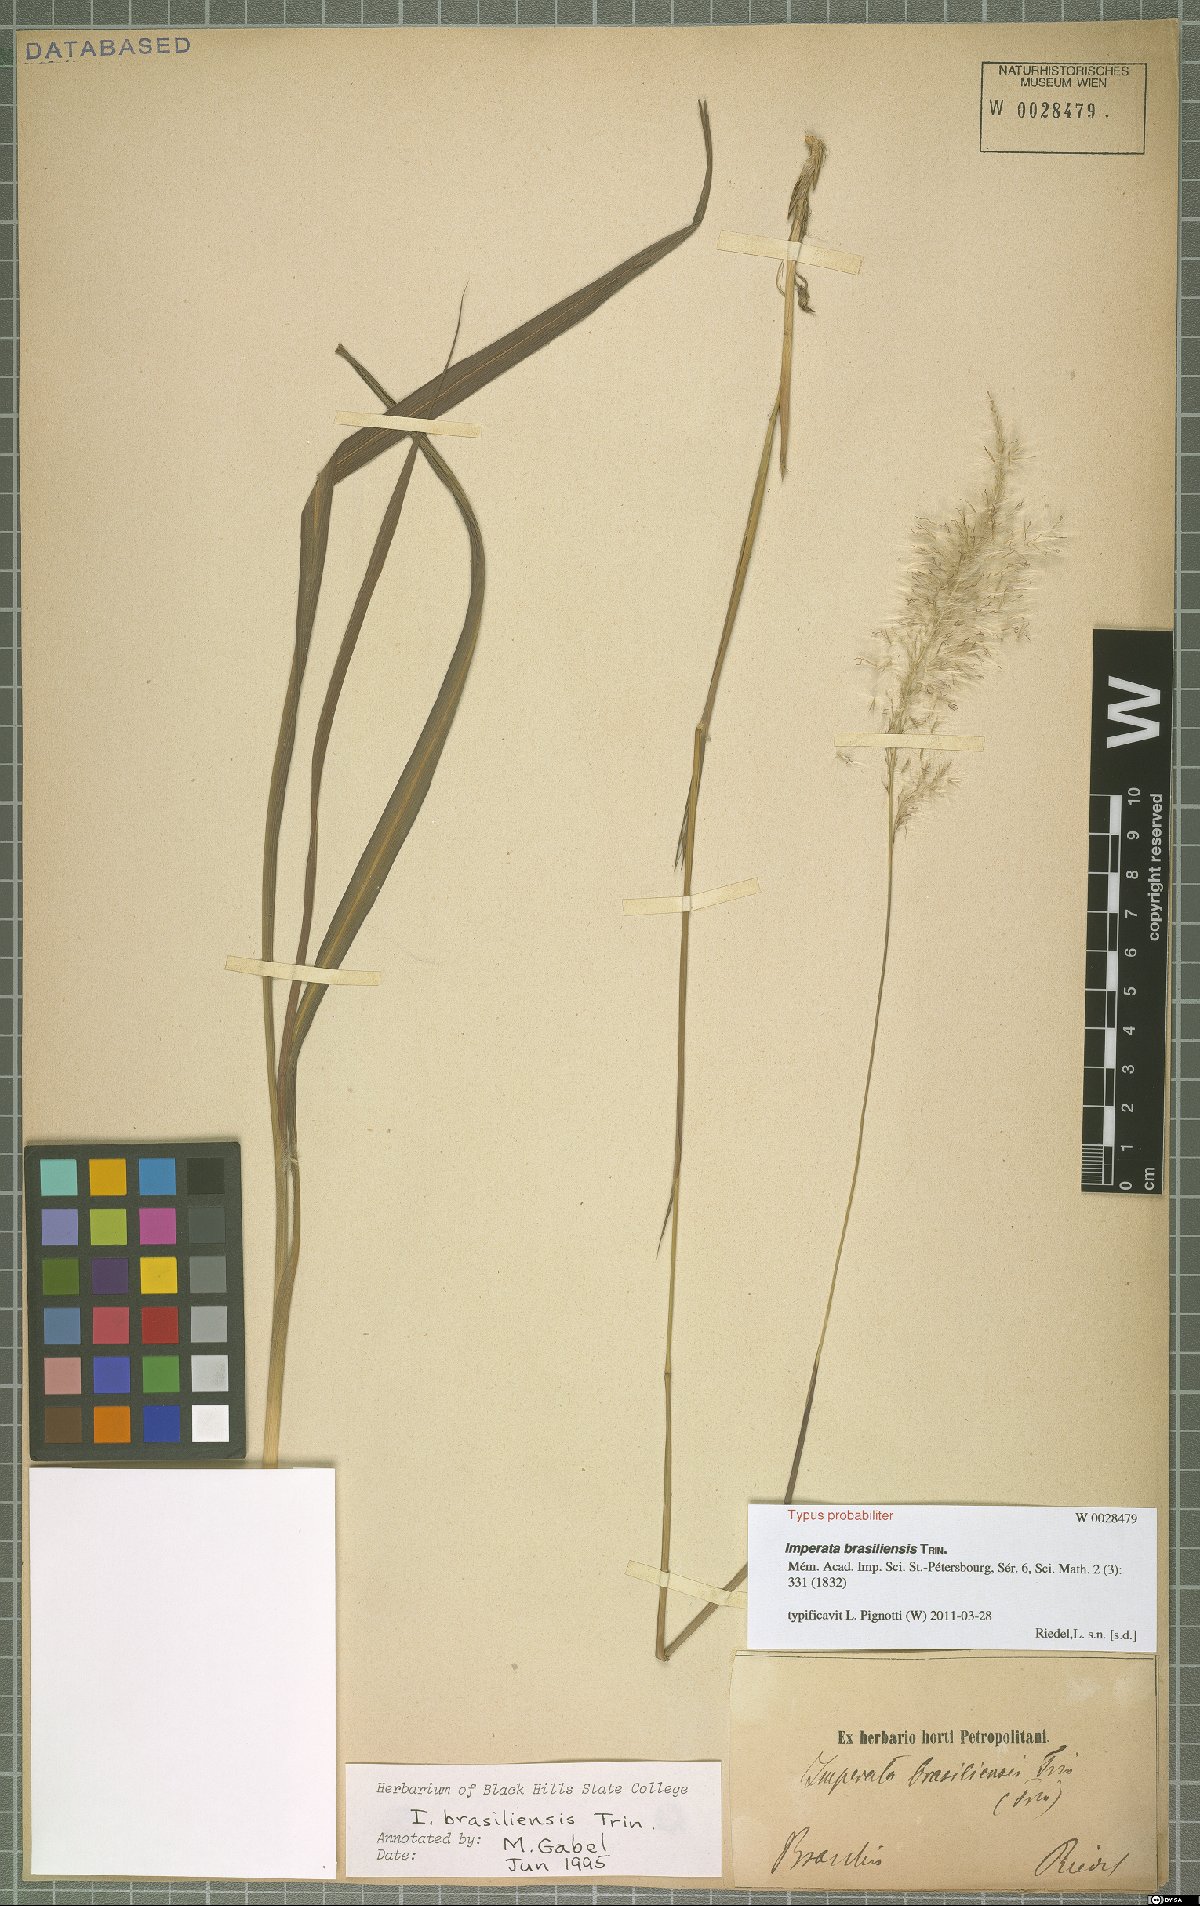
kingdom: Plantae
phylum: Tracheophyta
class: Liliopsida
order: Poales
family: Poaceae
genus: Imperata
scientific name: Imperata brasiliensis
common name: Brazilian satintail
